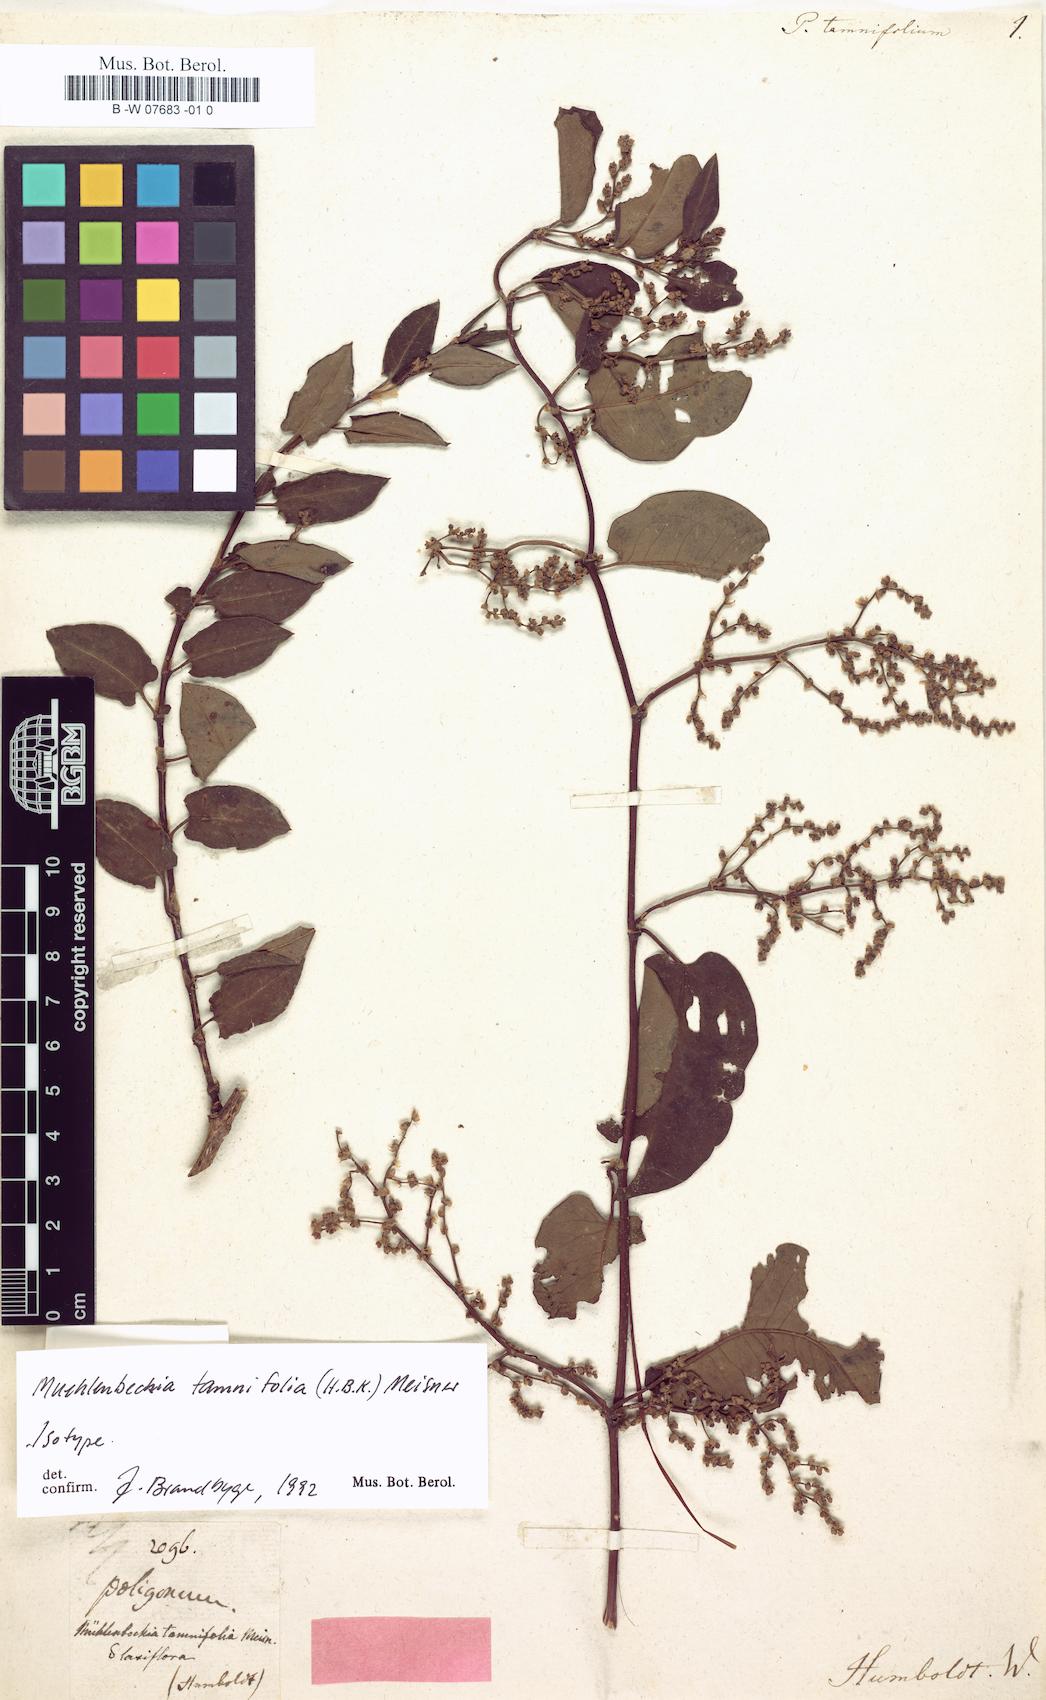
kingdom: Plantae
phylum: Tracheophyta
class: Magnoliopsida
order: Caryophyllales
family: Polygonaceae
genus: Muehlenbeckia
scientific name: Muehlenbeckia tamnifolia
